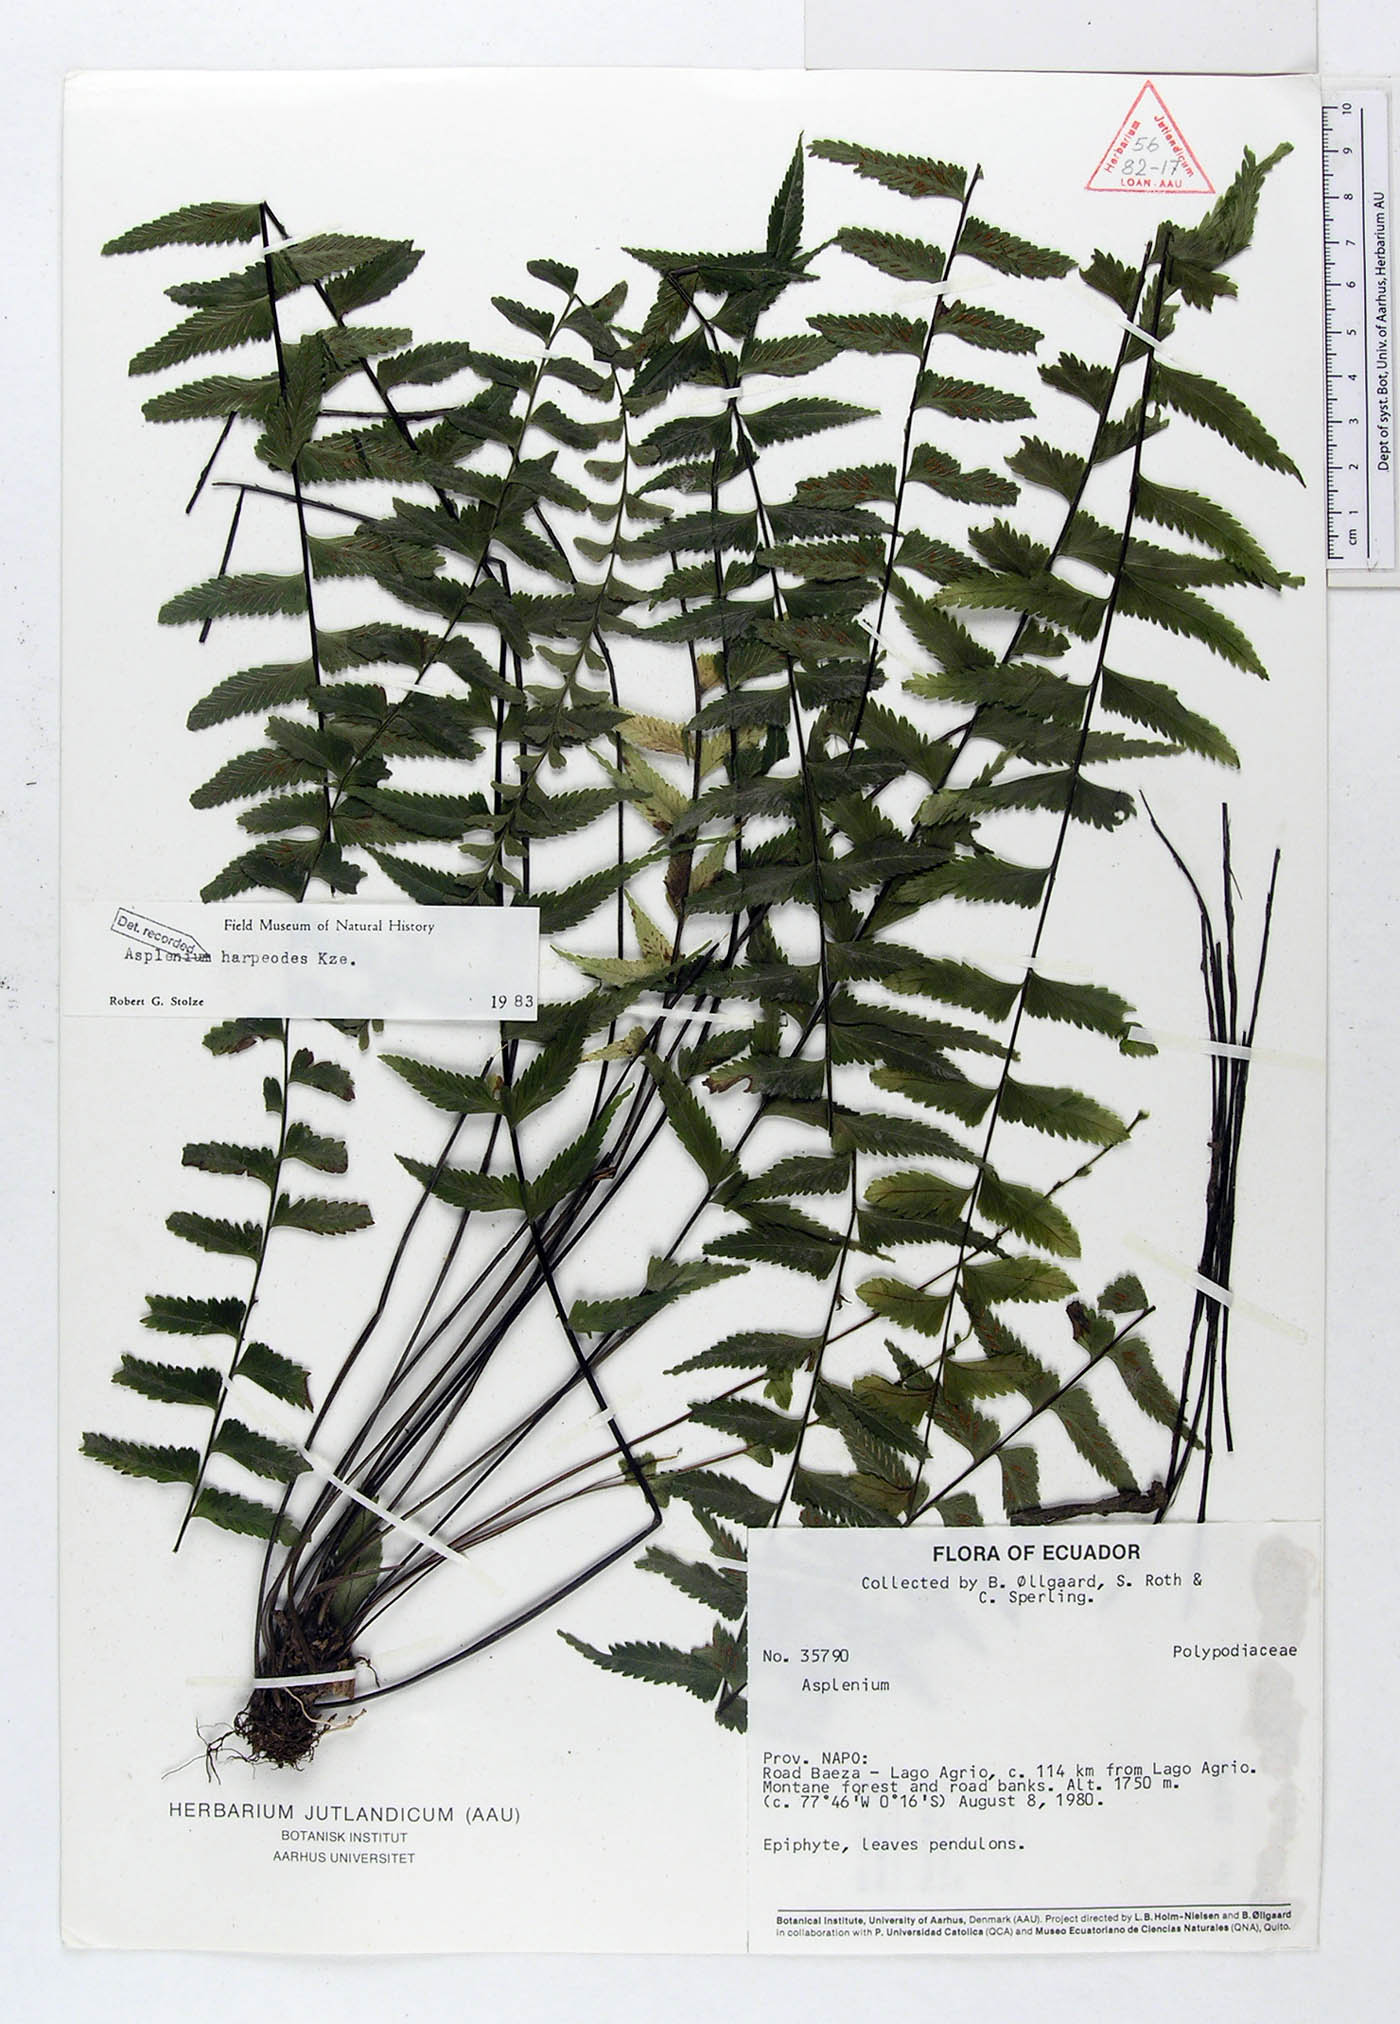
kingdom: Plantae
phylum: Tracheophyta
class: Polypodiopsida
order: Polypodiales
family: Aspleniaceae
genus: Asplenium
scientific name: Asplenium harpeodes
